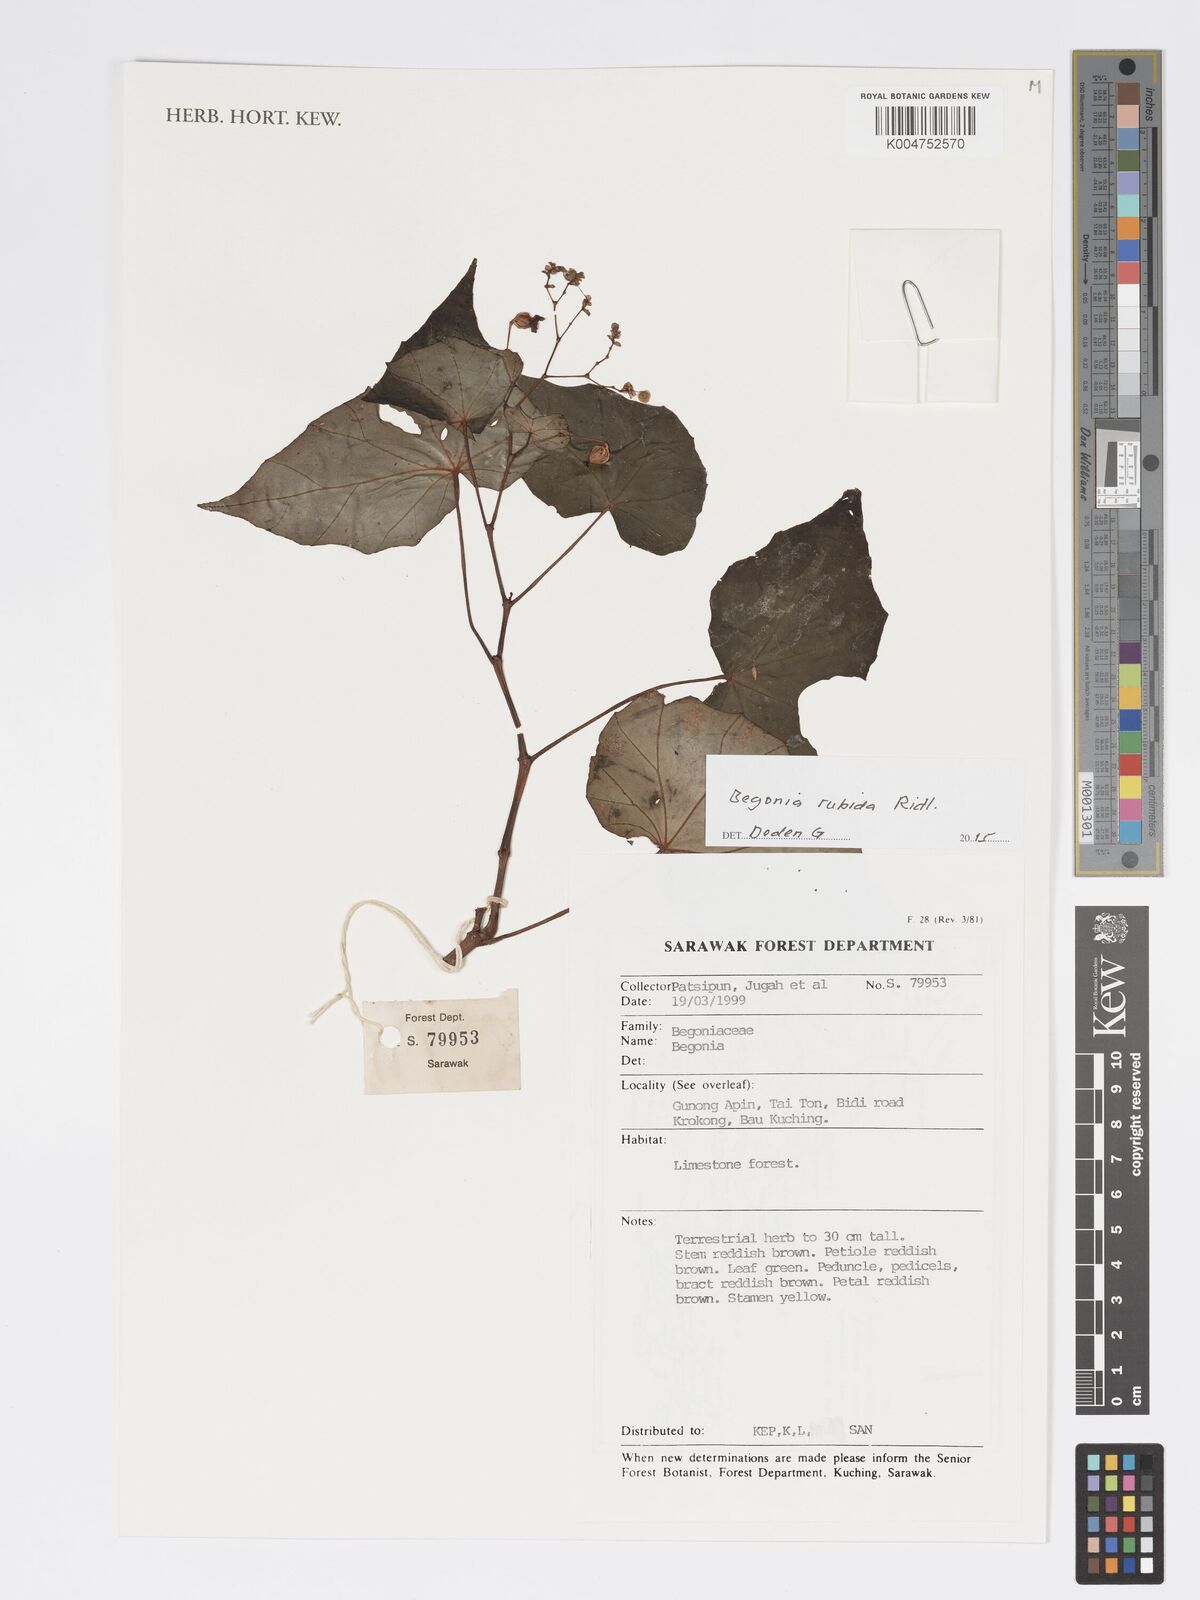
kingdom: Plantae
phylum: Tracheophyta
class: Magnoliopsida
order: Cucurbitales
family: Begoniaceae
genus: Begonia
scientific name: Begonia rubida
